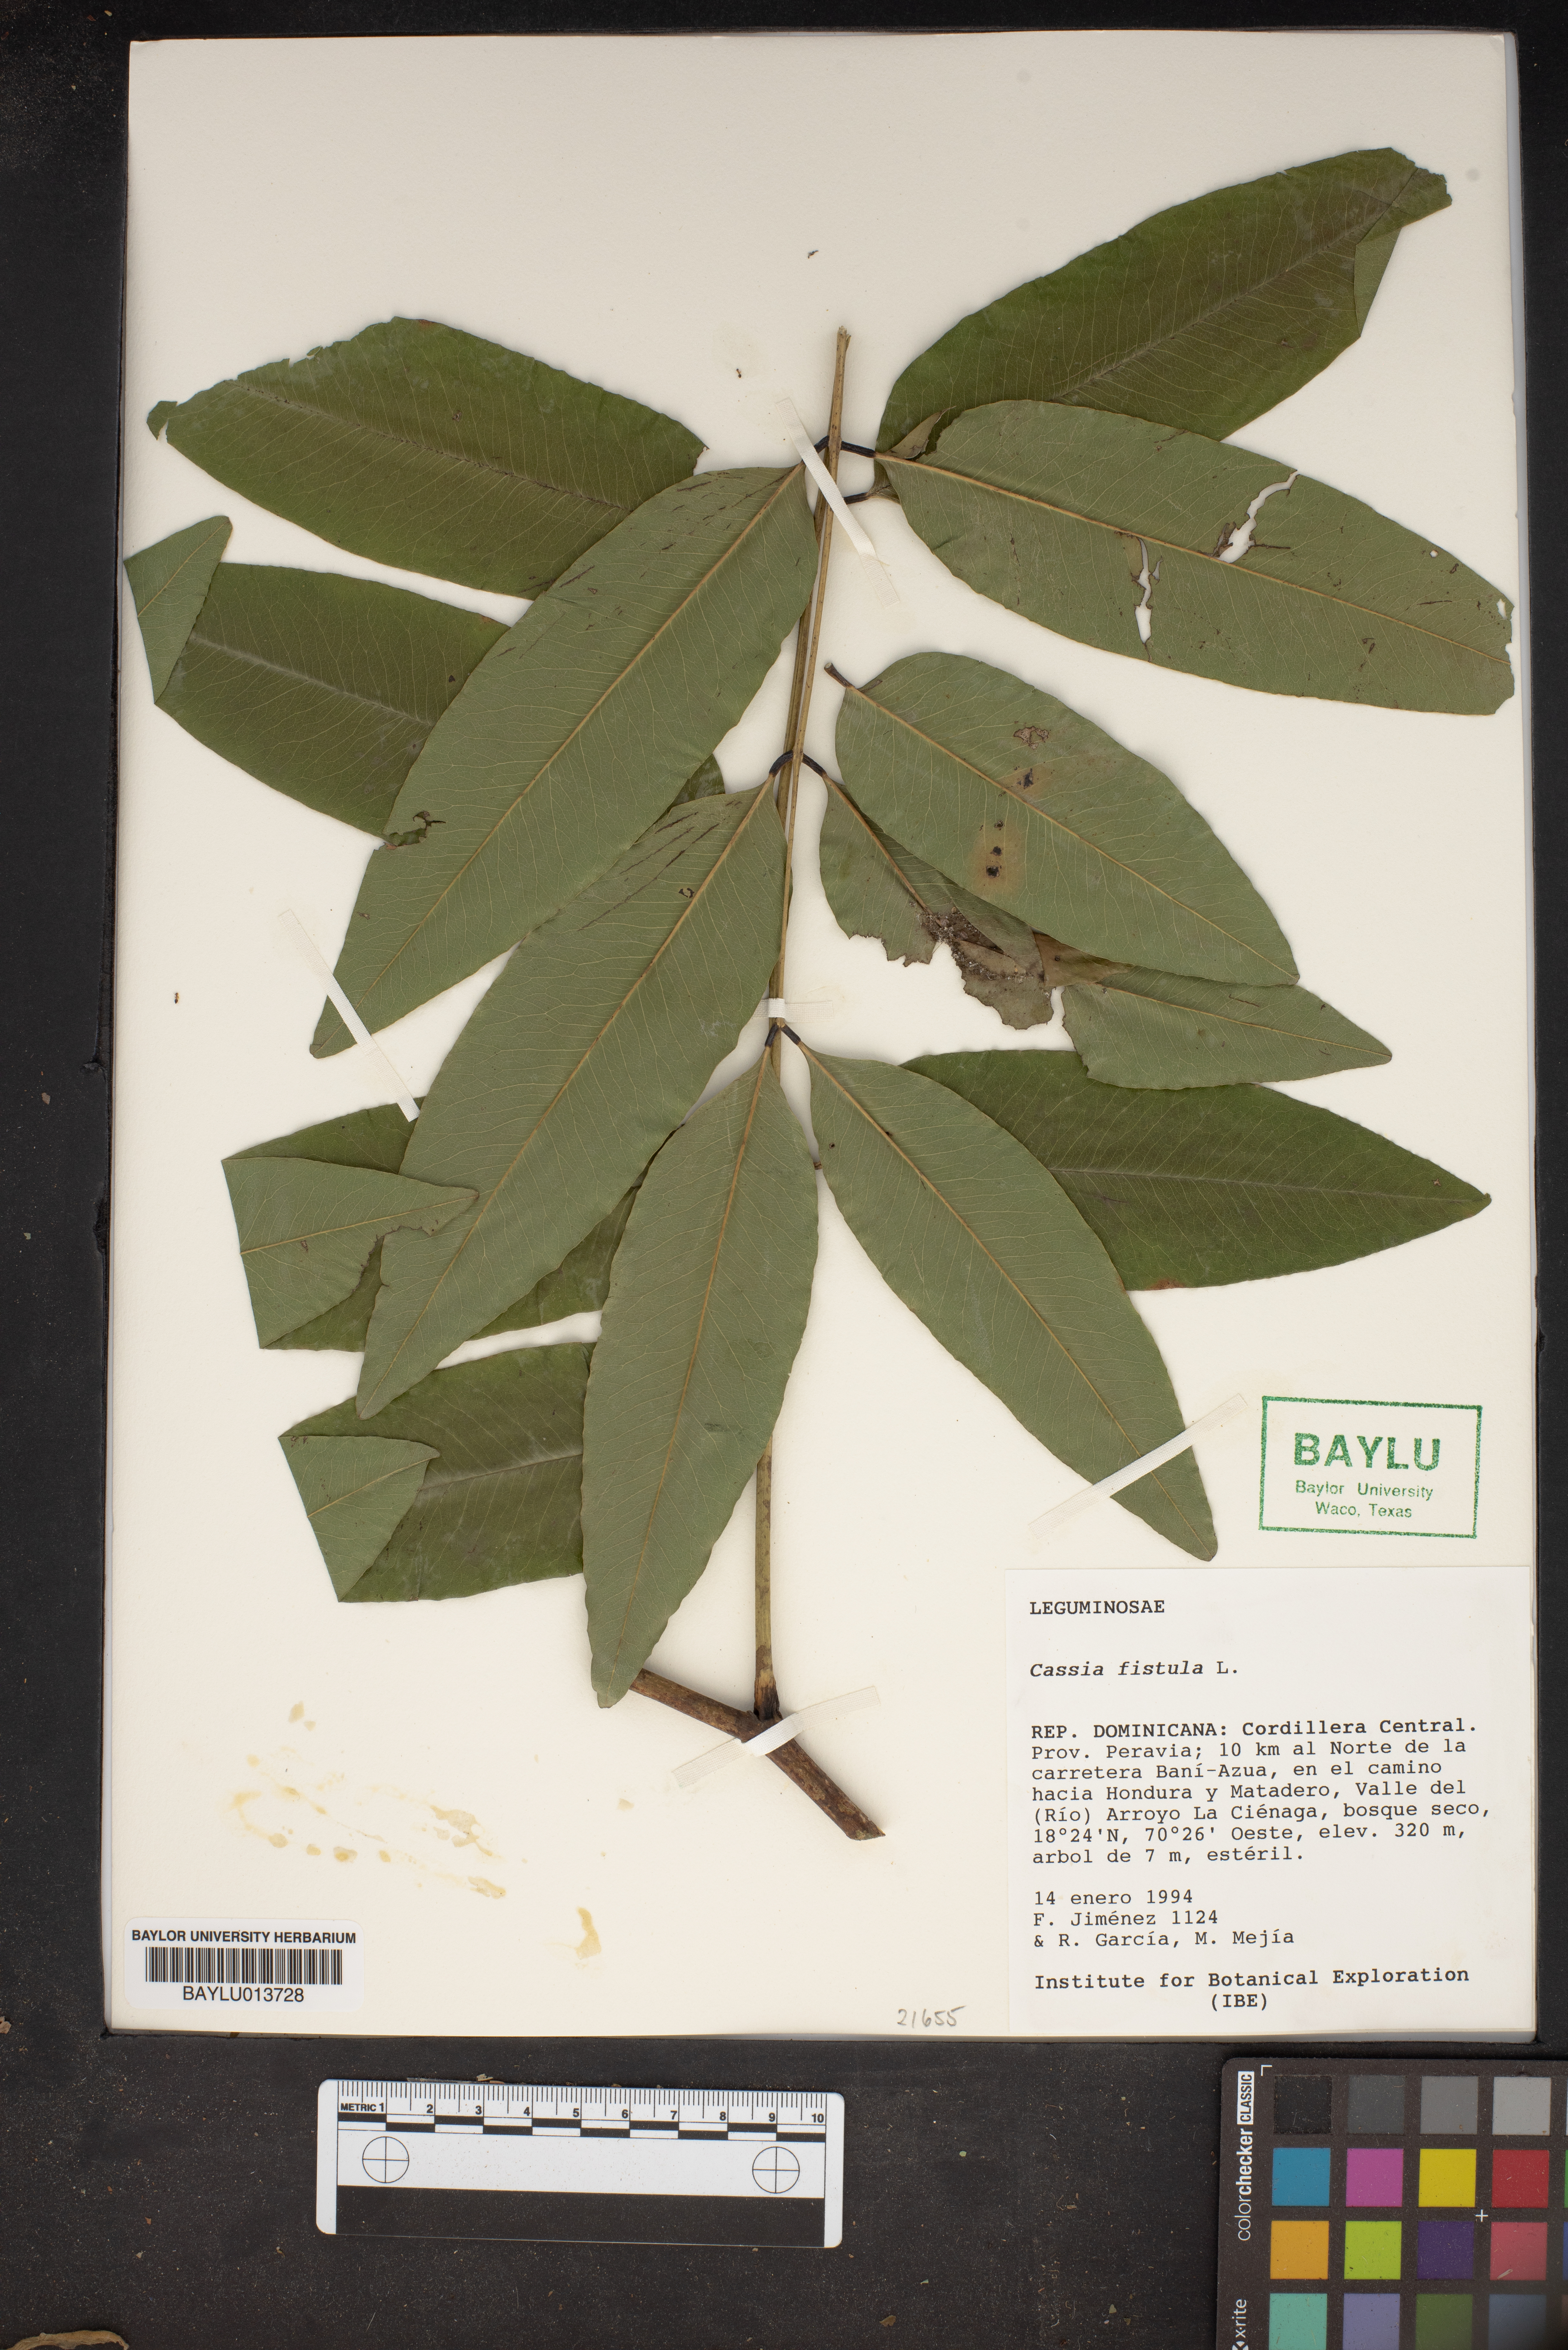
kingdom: Plantae
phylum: Tracheophyta
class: Magnoliopsida
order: Fabales
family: Fabaceae
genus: Cassia
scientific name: Cassia fistula
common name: Golden shower
